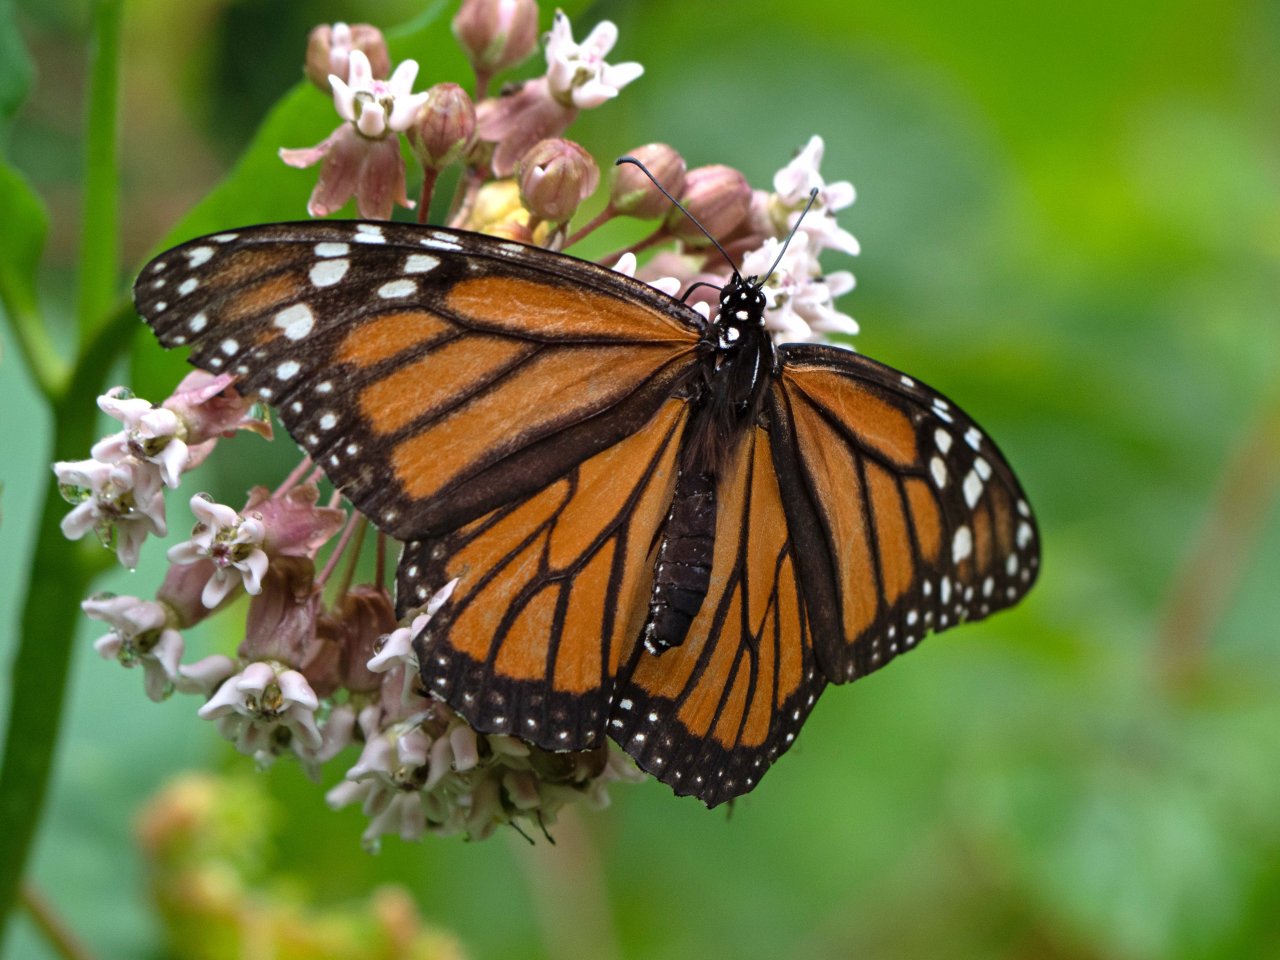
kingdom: Animalia
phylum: Arthropoda
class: Insecta
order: Lepidoptera
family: Nymphalidae
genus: Danaus
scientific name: Danaus plexippus
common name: Monarch
